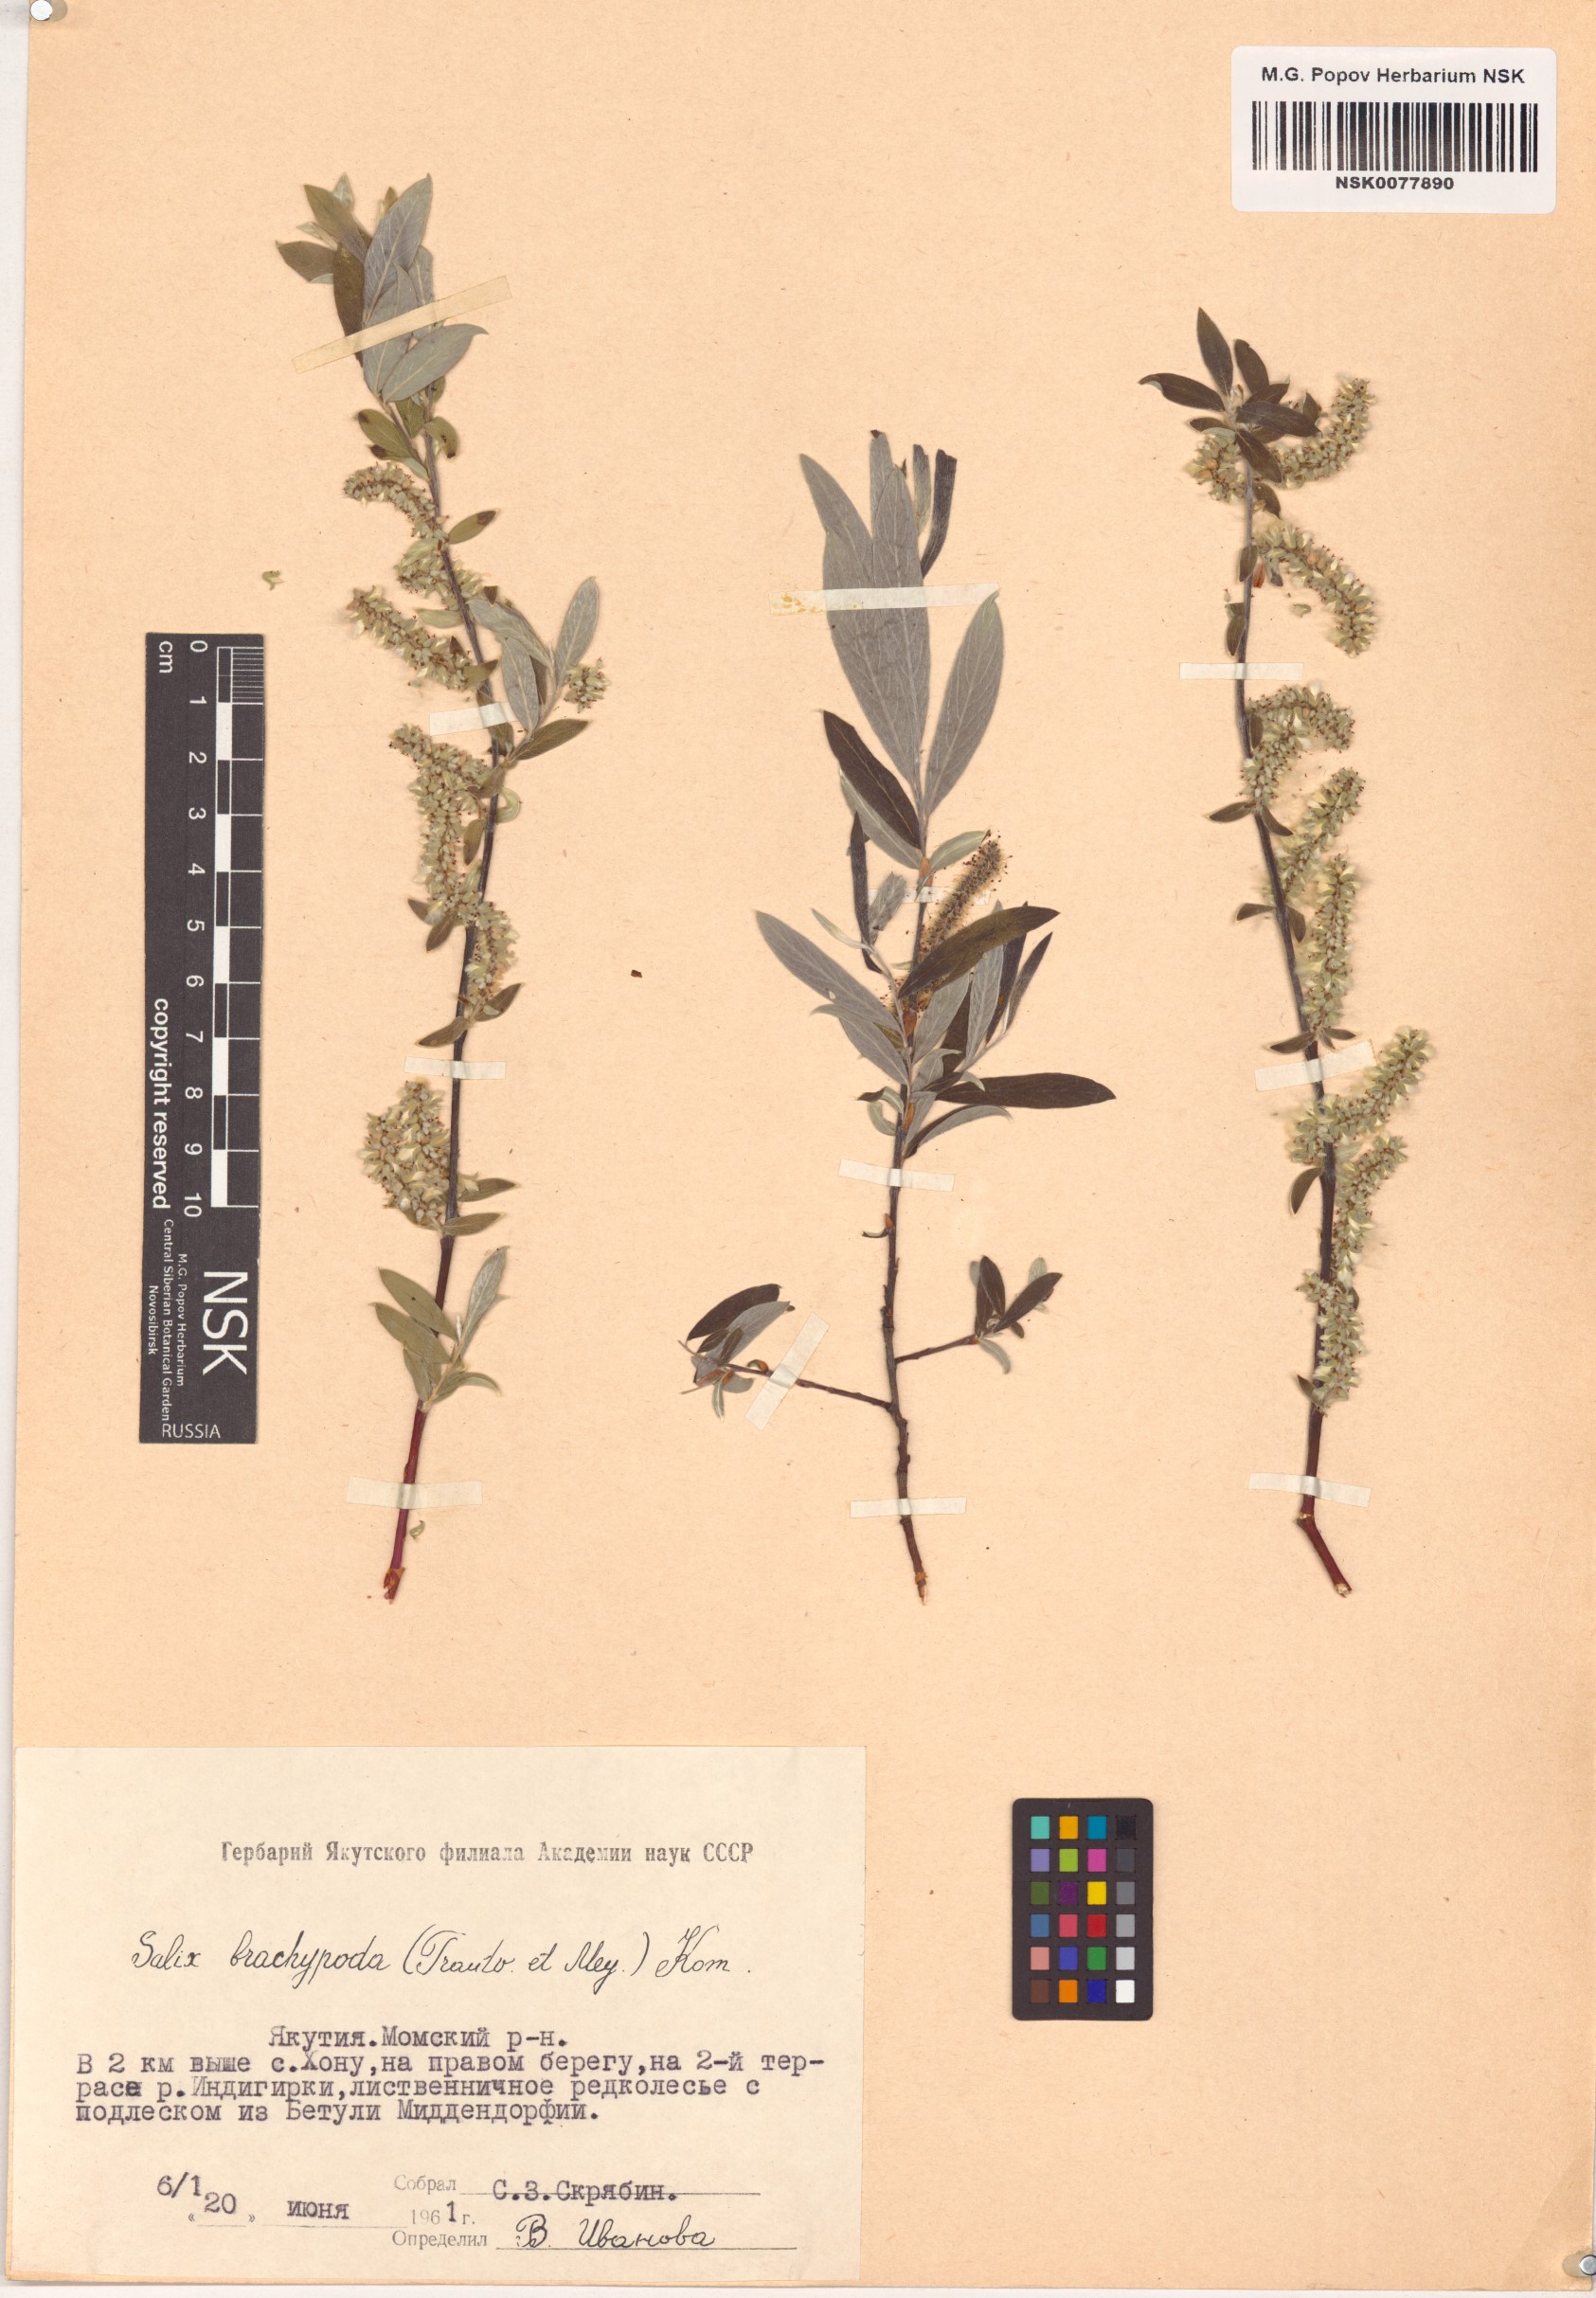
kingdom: Plantae
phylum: Tracheophyta
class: Magnoliopsida
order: Malpighiales
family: Salicaceae
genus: Salix
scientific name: Salix brachypoda
